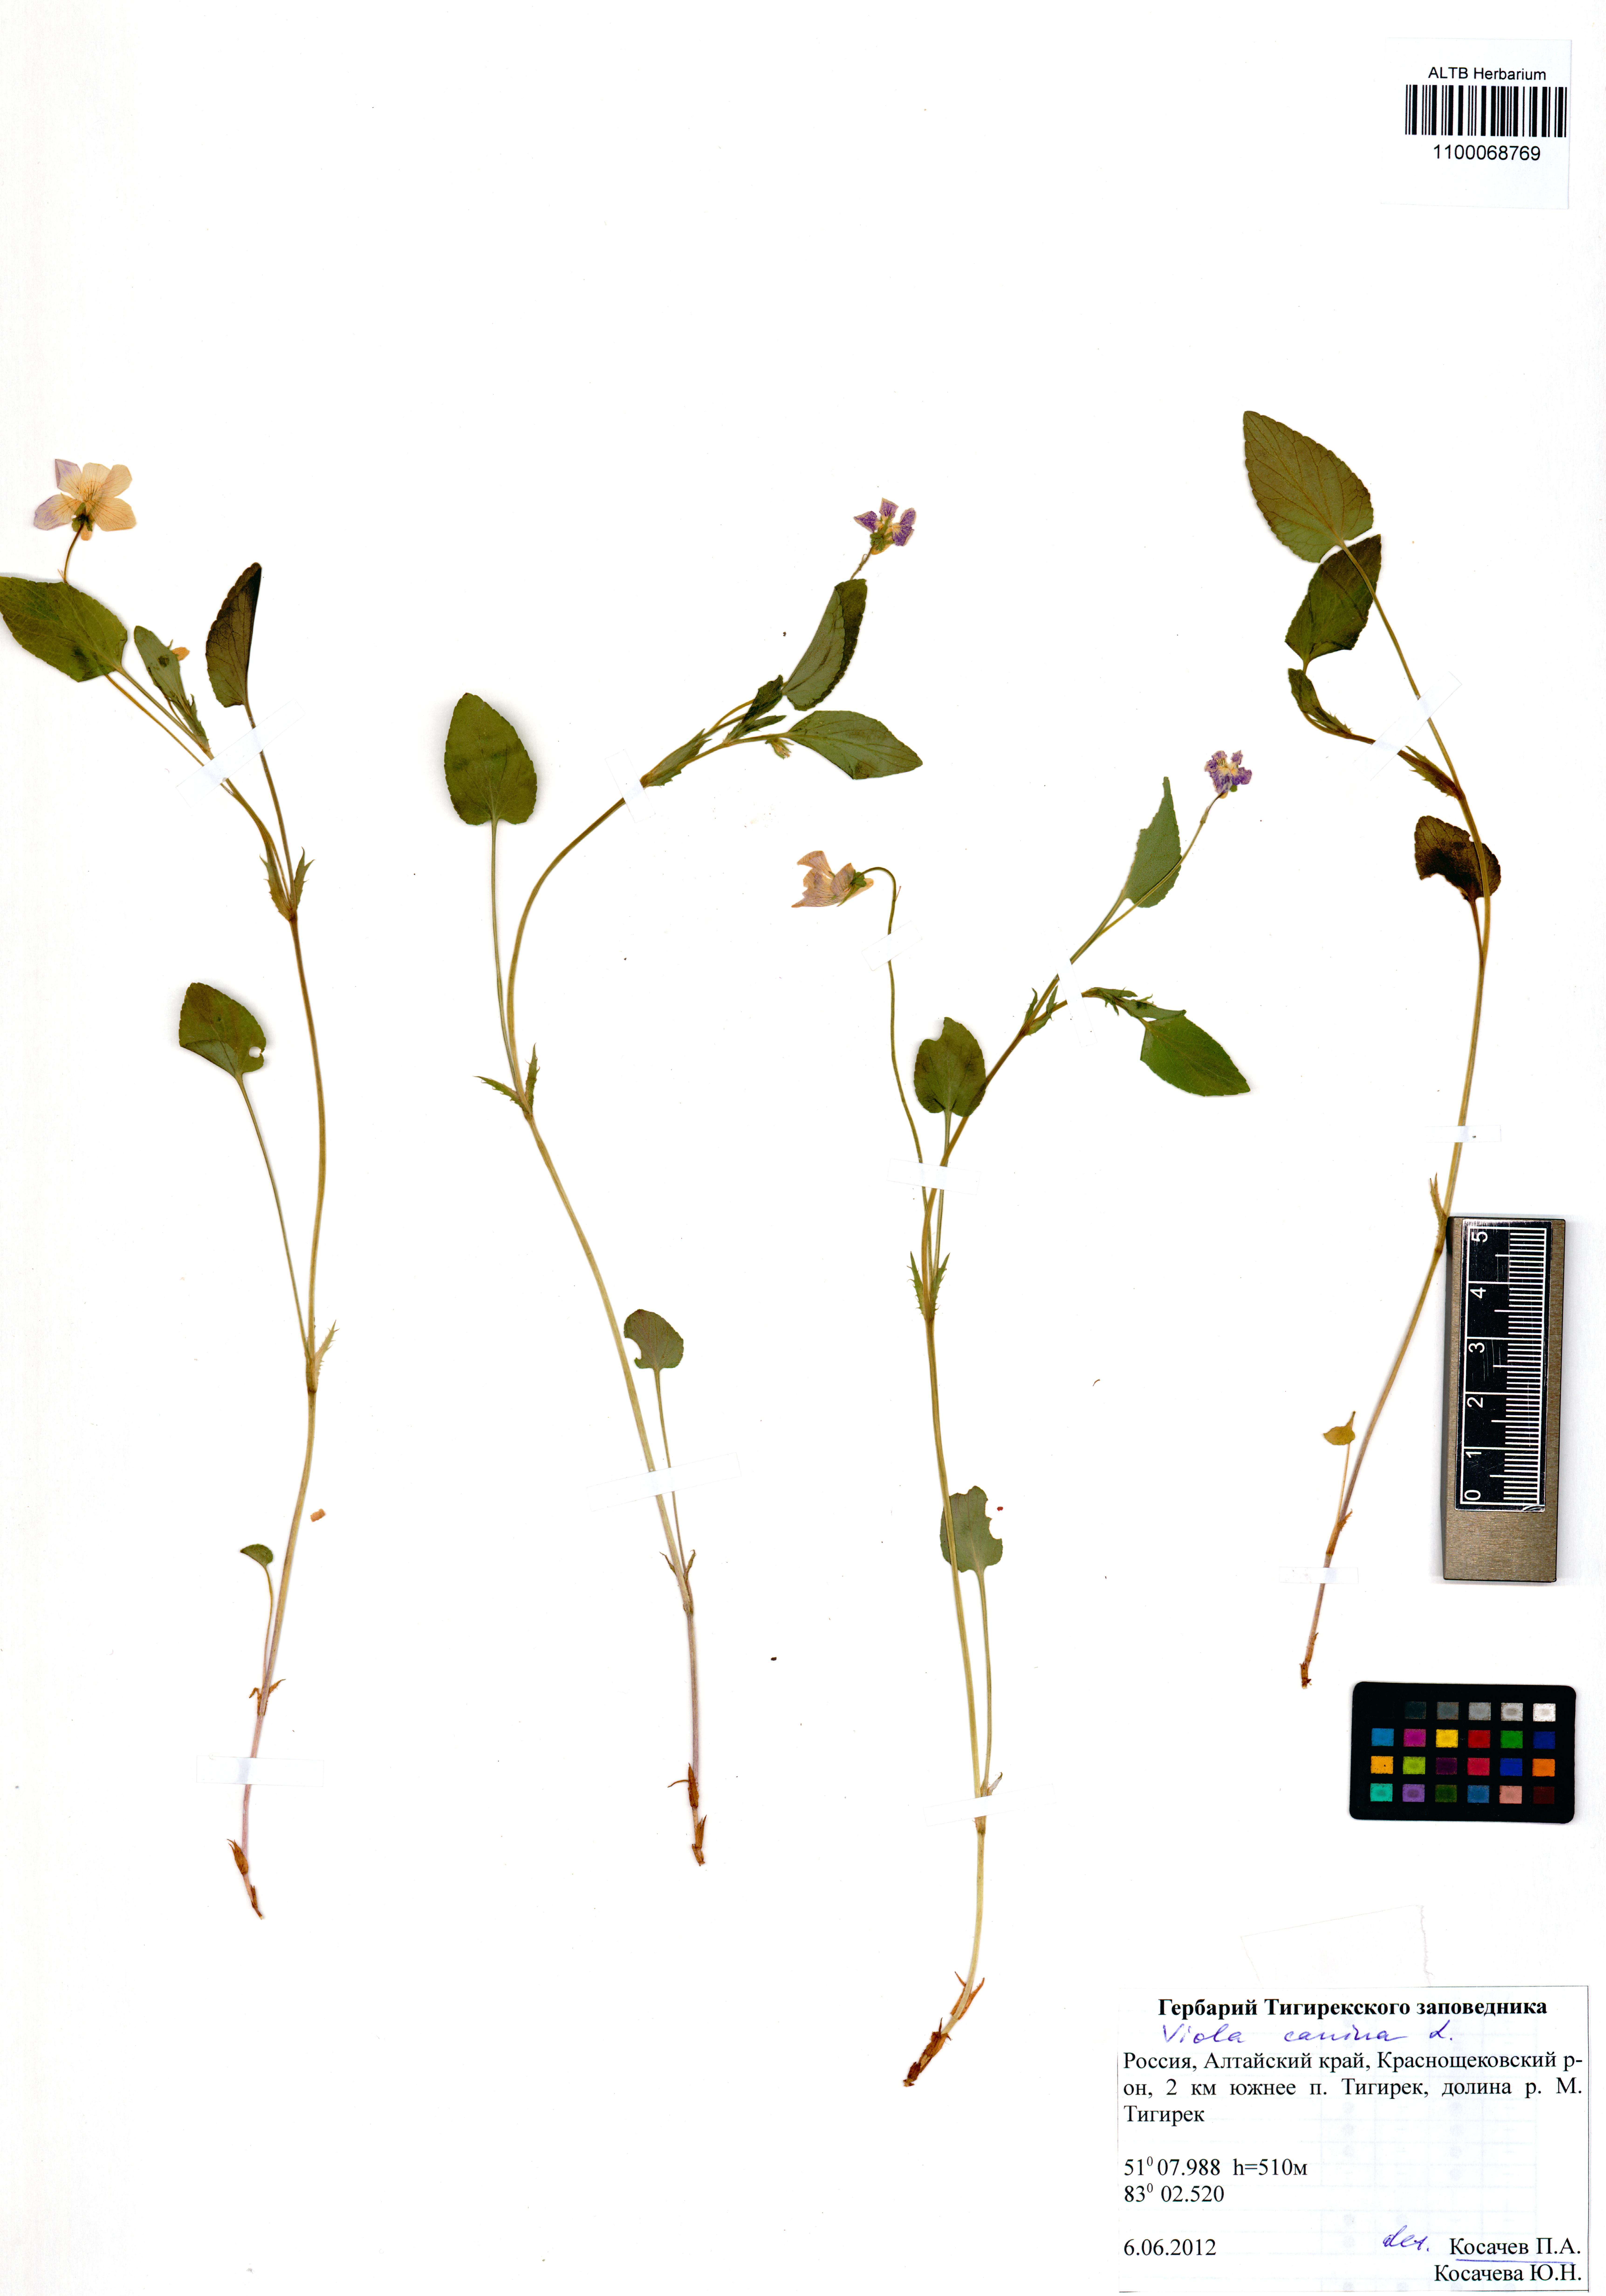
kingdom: Plantae
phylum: Tracheophyta
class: Magnoliopsida
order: Malpighiales
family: Violaceae
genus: Viola
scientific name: Viola canina
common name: Heath dog-violet
